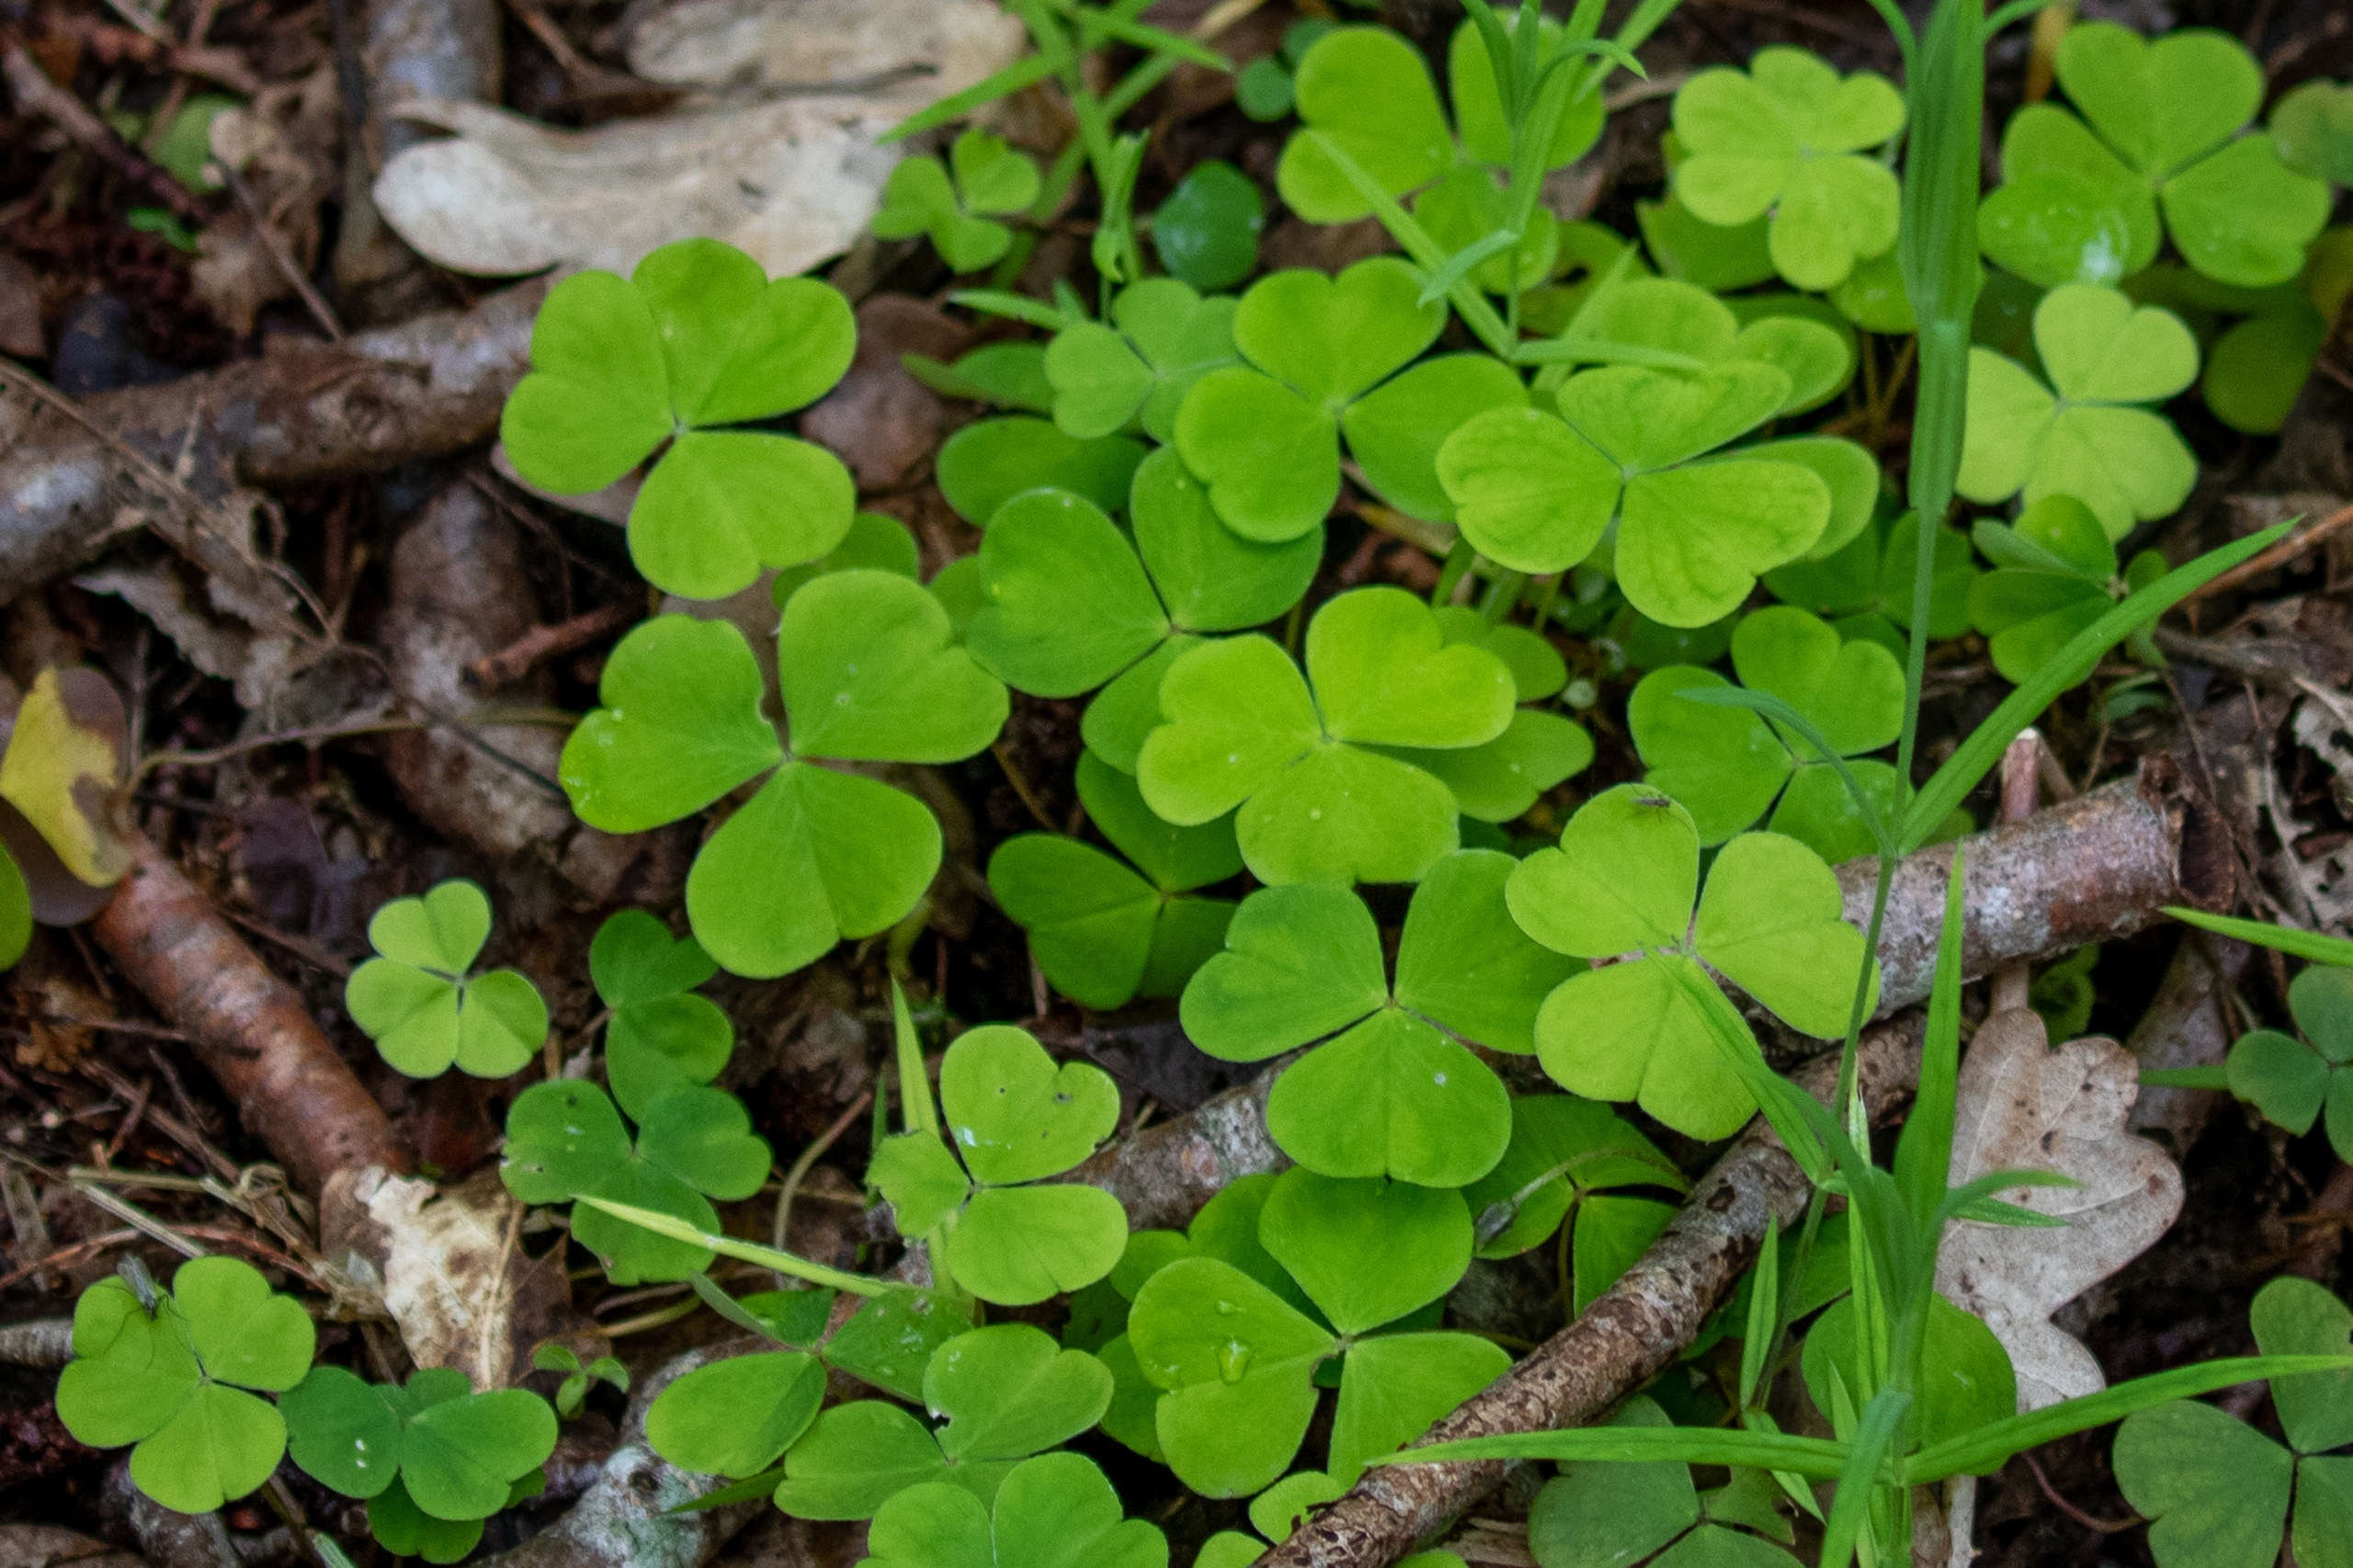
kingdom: Plantae
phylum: Tracheophyta
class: Magnoliopsida
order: Oxalidales
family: Oxalidaceae
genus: Oxalis
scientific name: Oxalis acetosella
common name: Skovsyre
